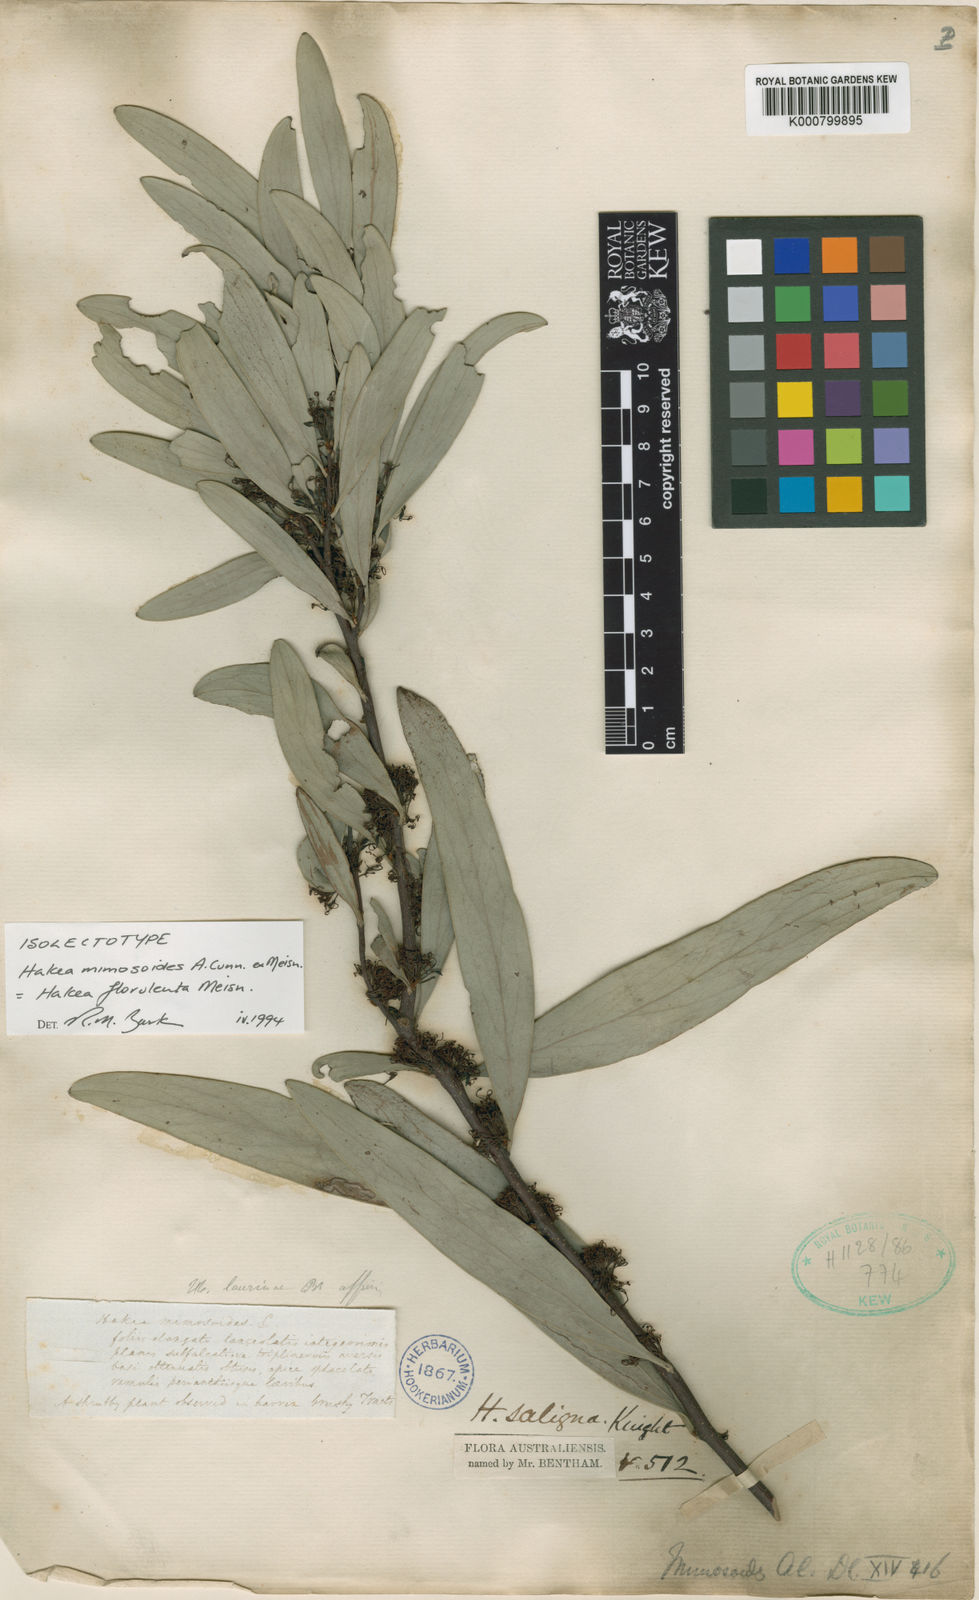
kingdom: Plantae
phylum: Tracheophyta
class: Magnoliopsida
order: Proteales
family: Proteaceae
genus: Hakea
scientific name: Hakea florulenta
